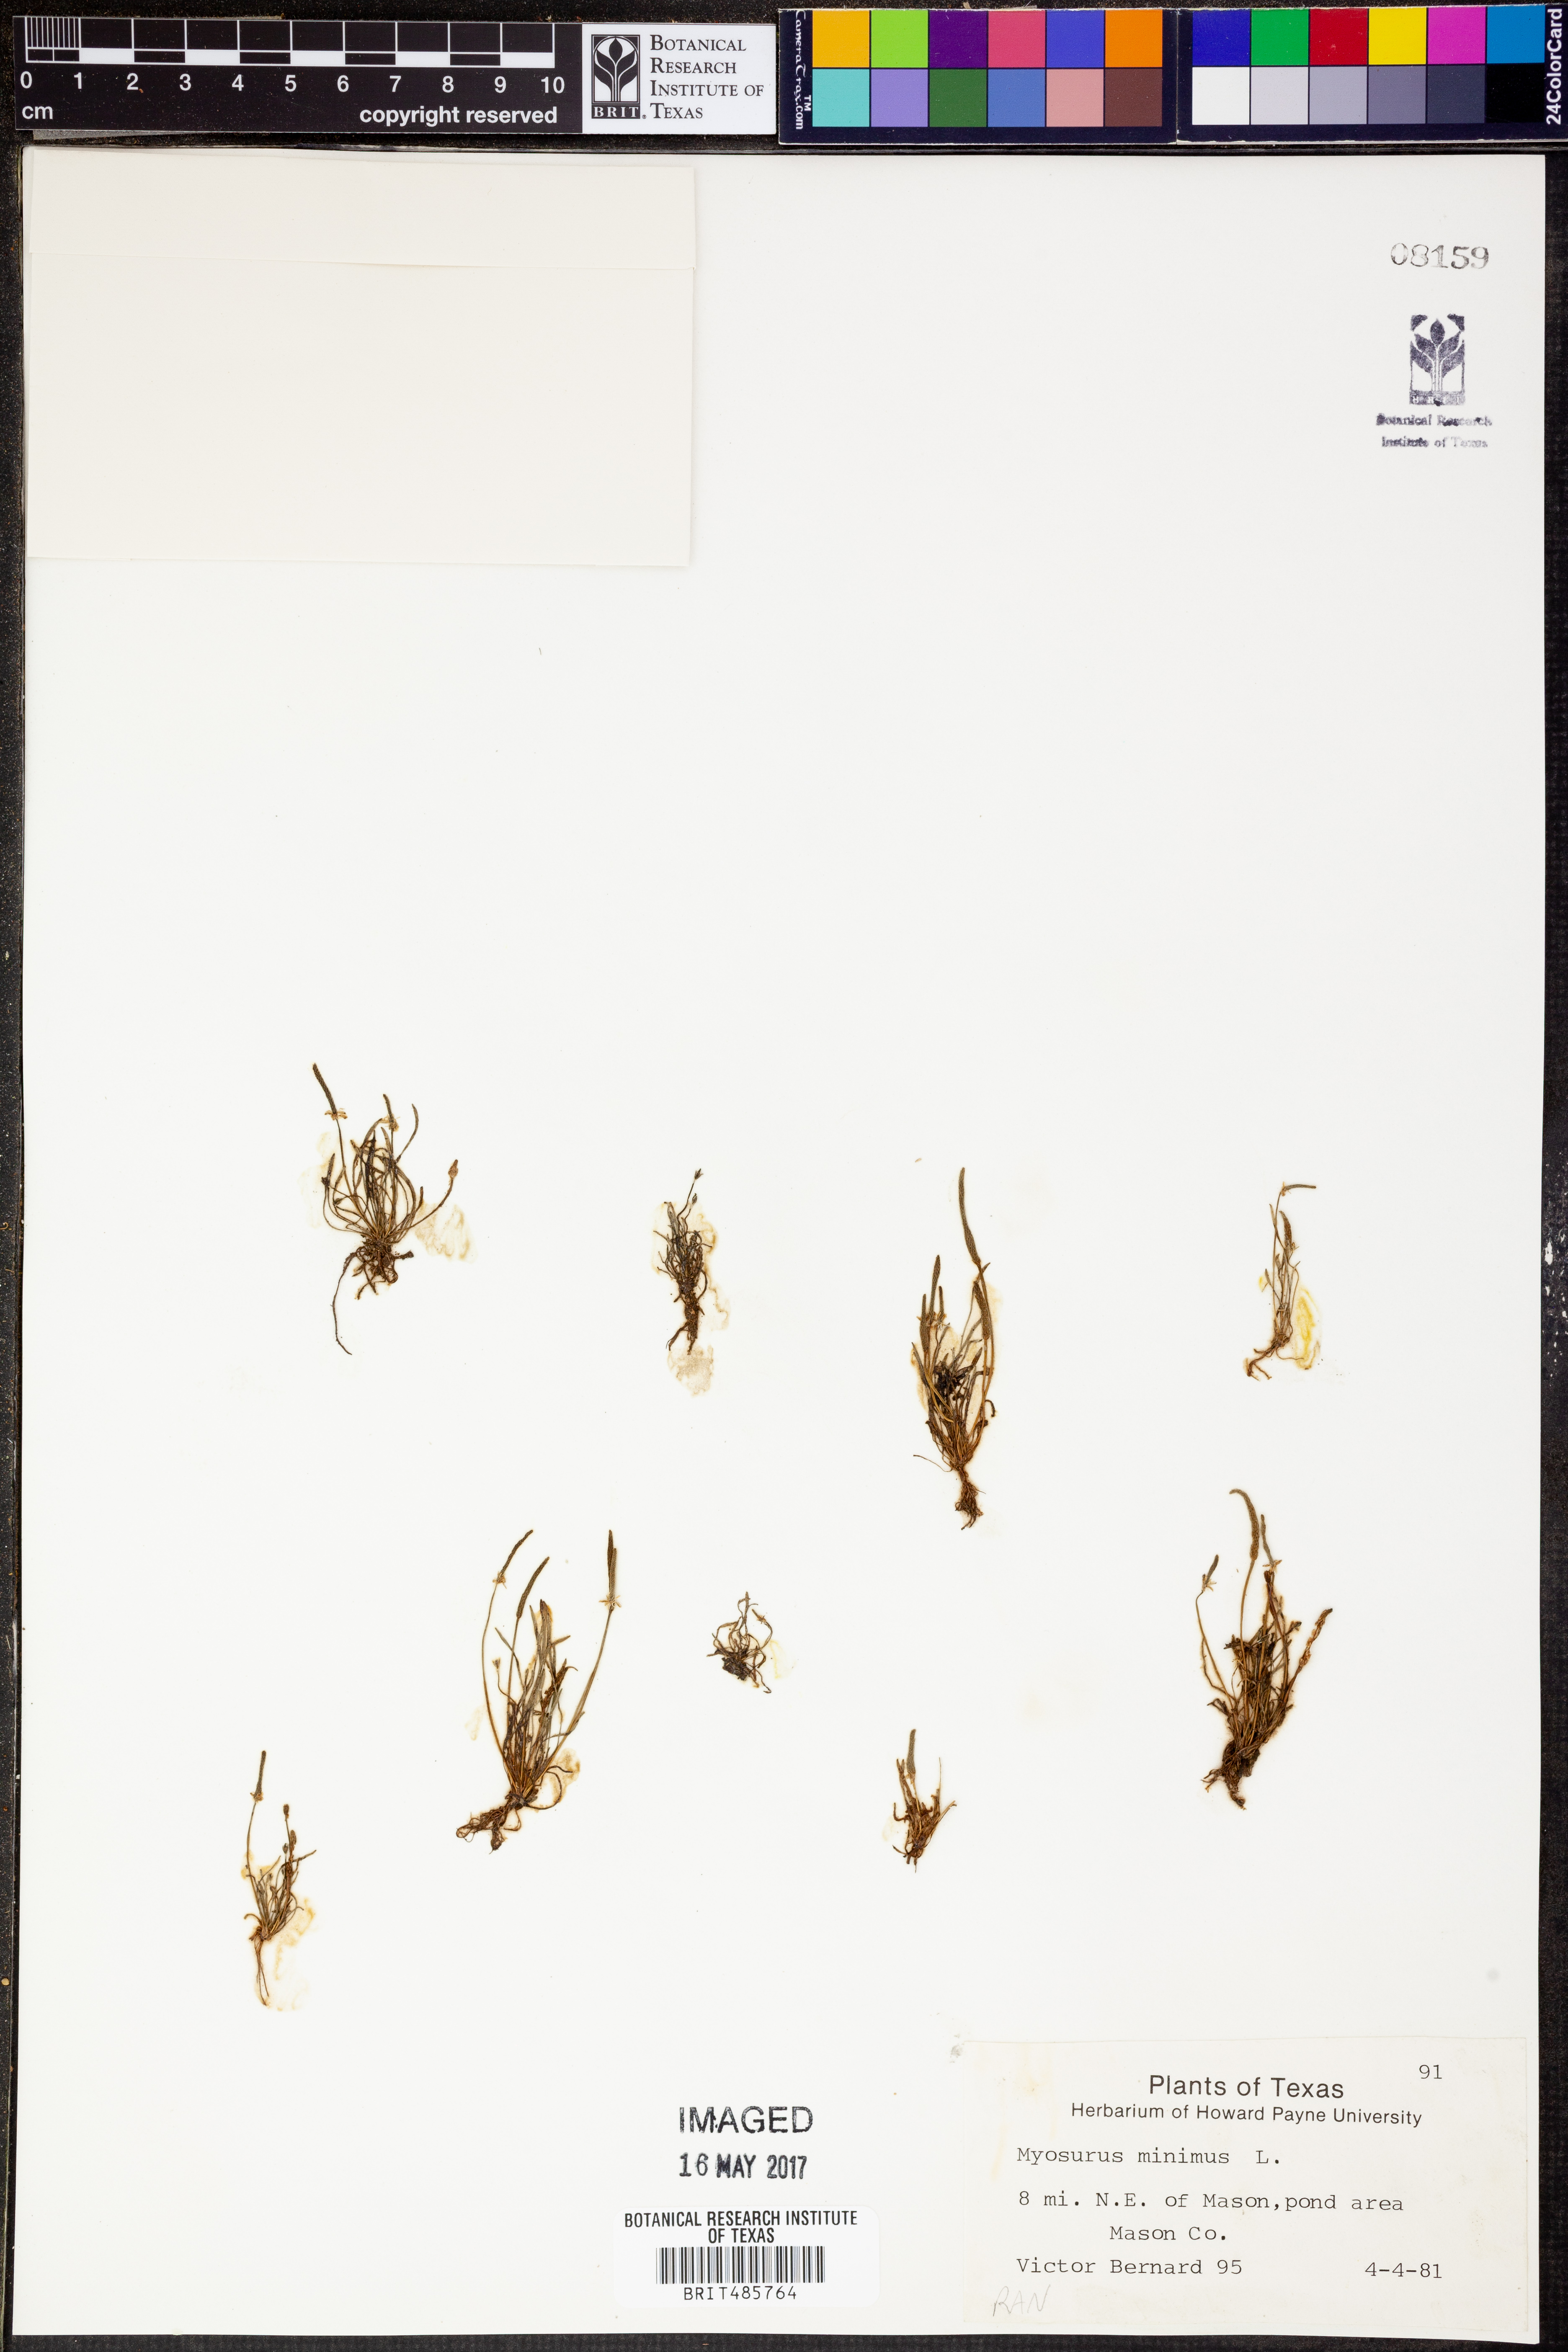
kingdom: Plantae
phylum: Tracheophyta
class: Magnoliopsida
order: Ranunculales
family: Ranunculaceae
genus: Myosurus
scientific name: Myosurus minimus
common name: Mousetail
